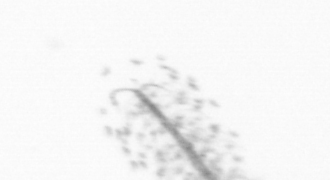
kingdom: Chromista
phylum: Ochrophyta
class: Bacillariophyceae
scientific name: Bacillariophyceae
